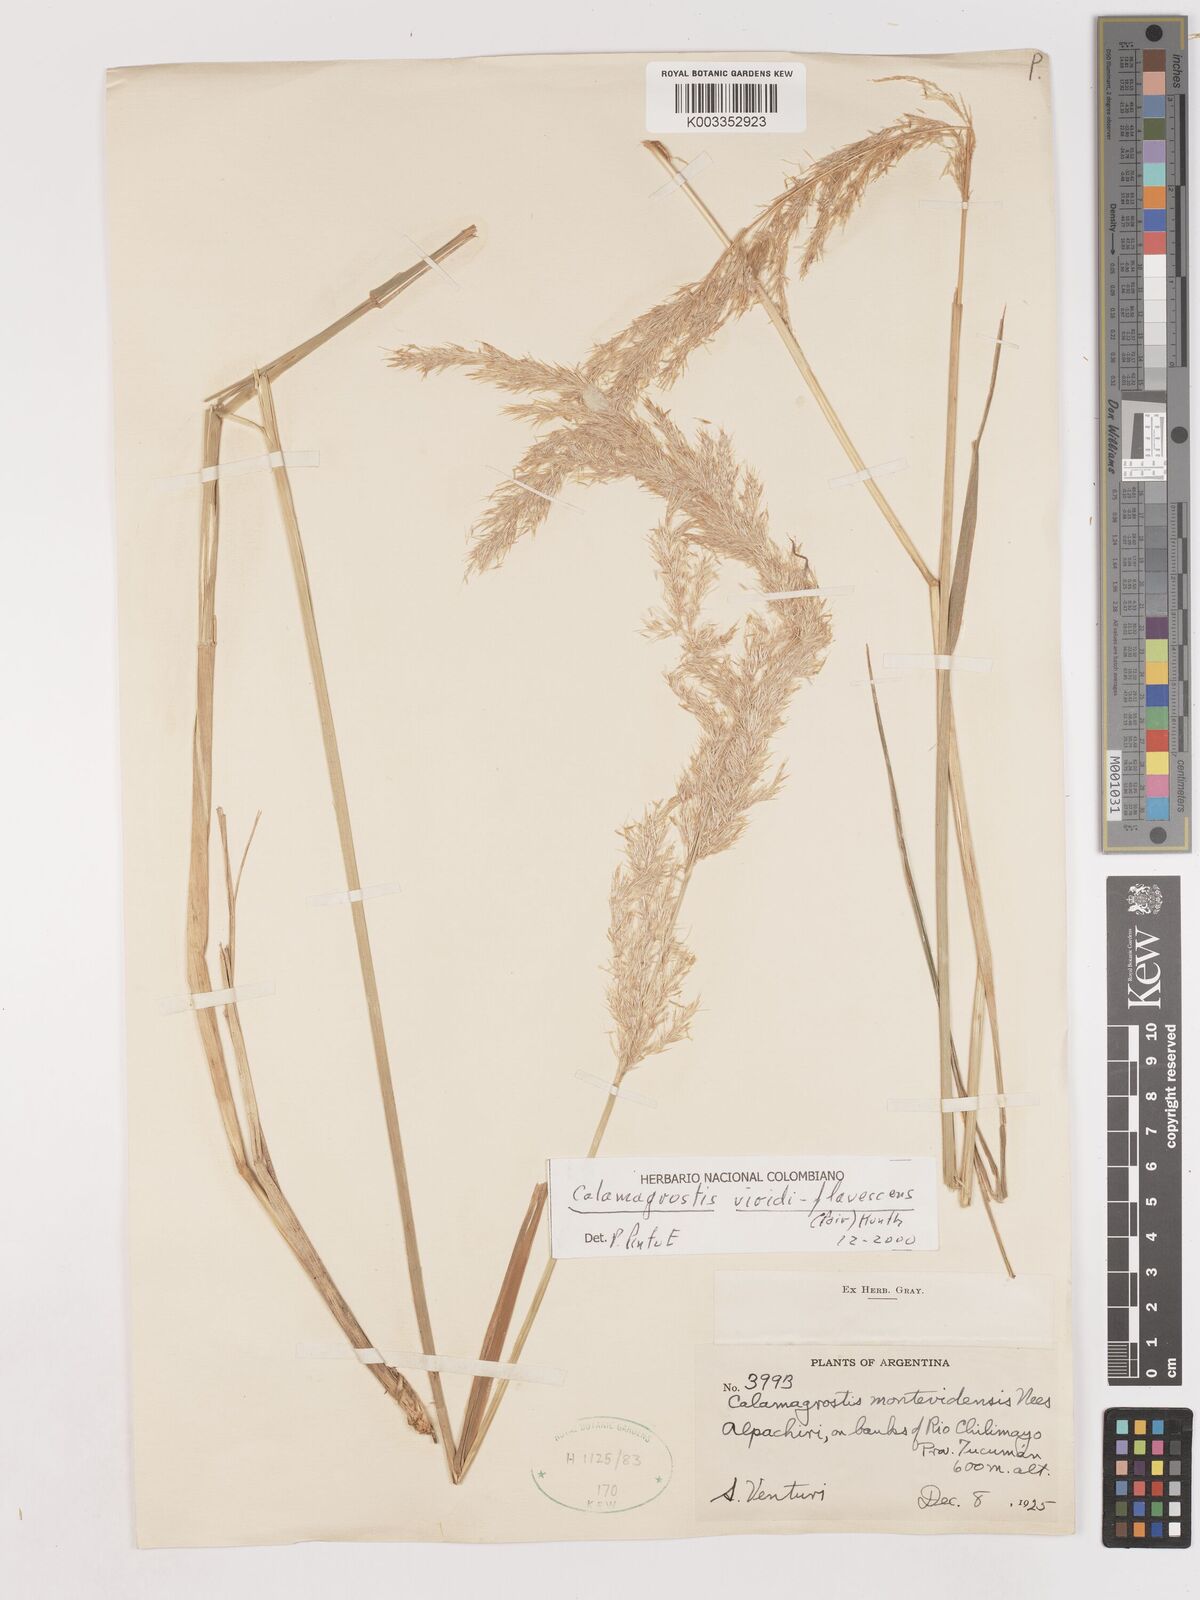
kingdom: Plantae
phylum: Tracheophyta
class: Liliopsida
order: Poales
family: Poaceae
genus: Cinnagrostis
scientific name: Cinnagrostis viridiflavescens
